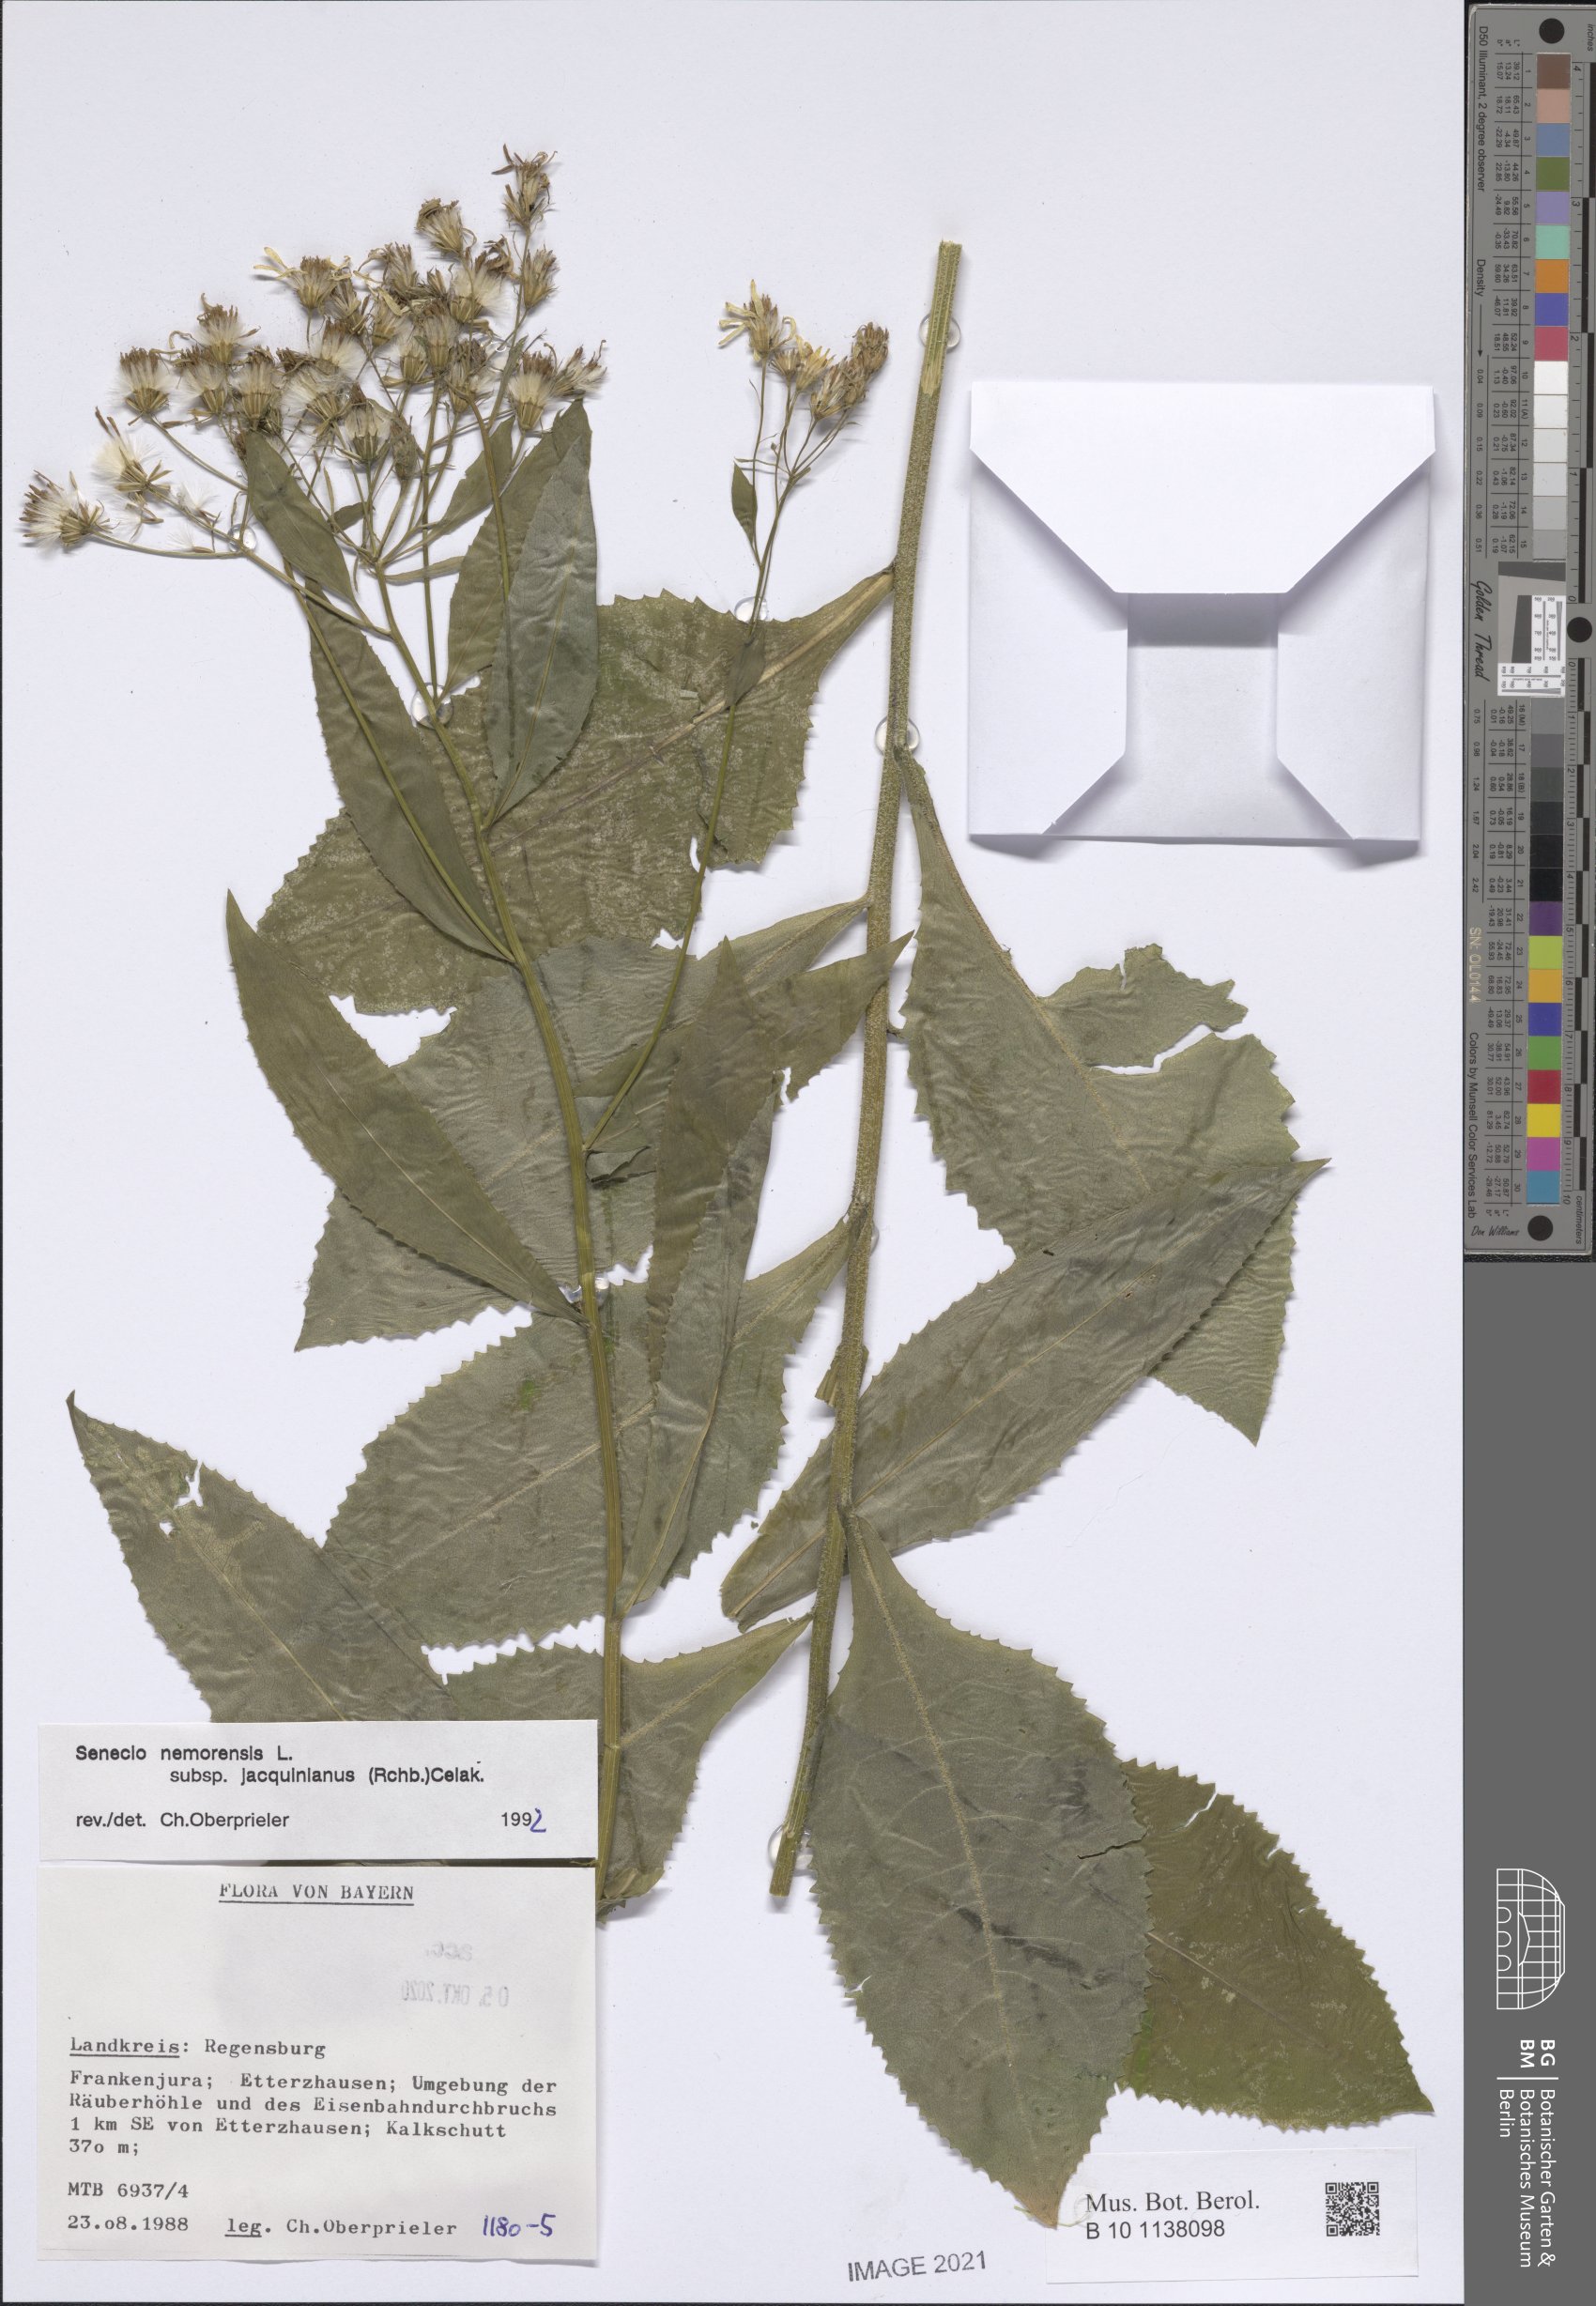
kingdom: Plantae
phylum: Tracheophyta
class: Magnoliopsida
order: Asterales
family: Asteraceae
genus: Senecio
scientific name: Senecio germanicus
